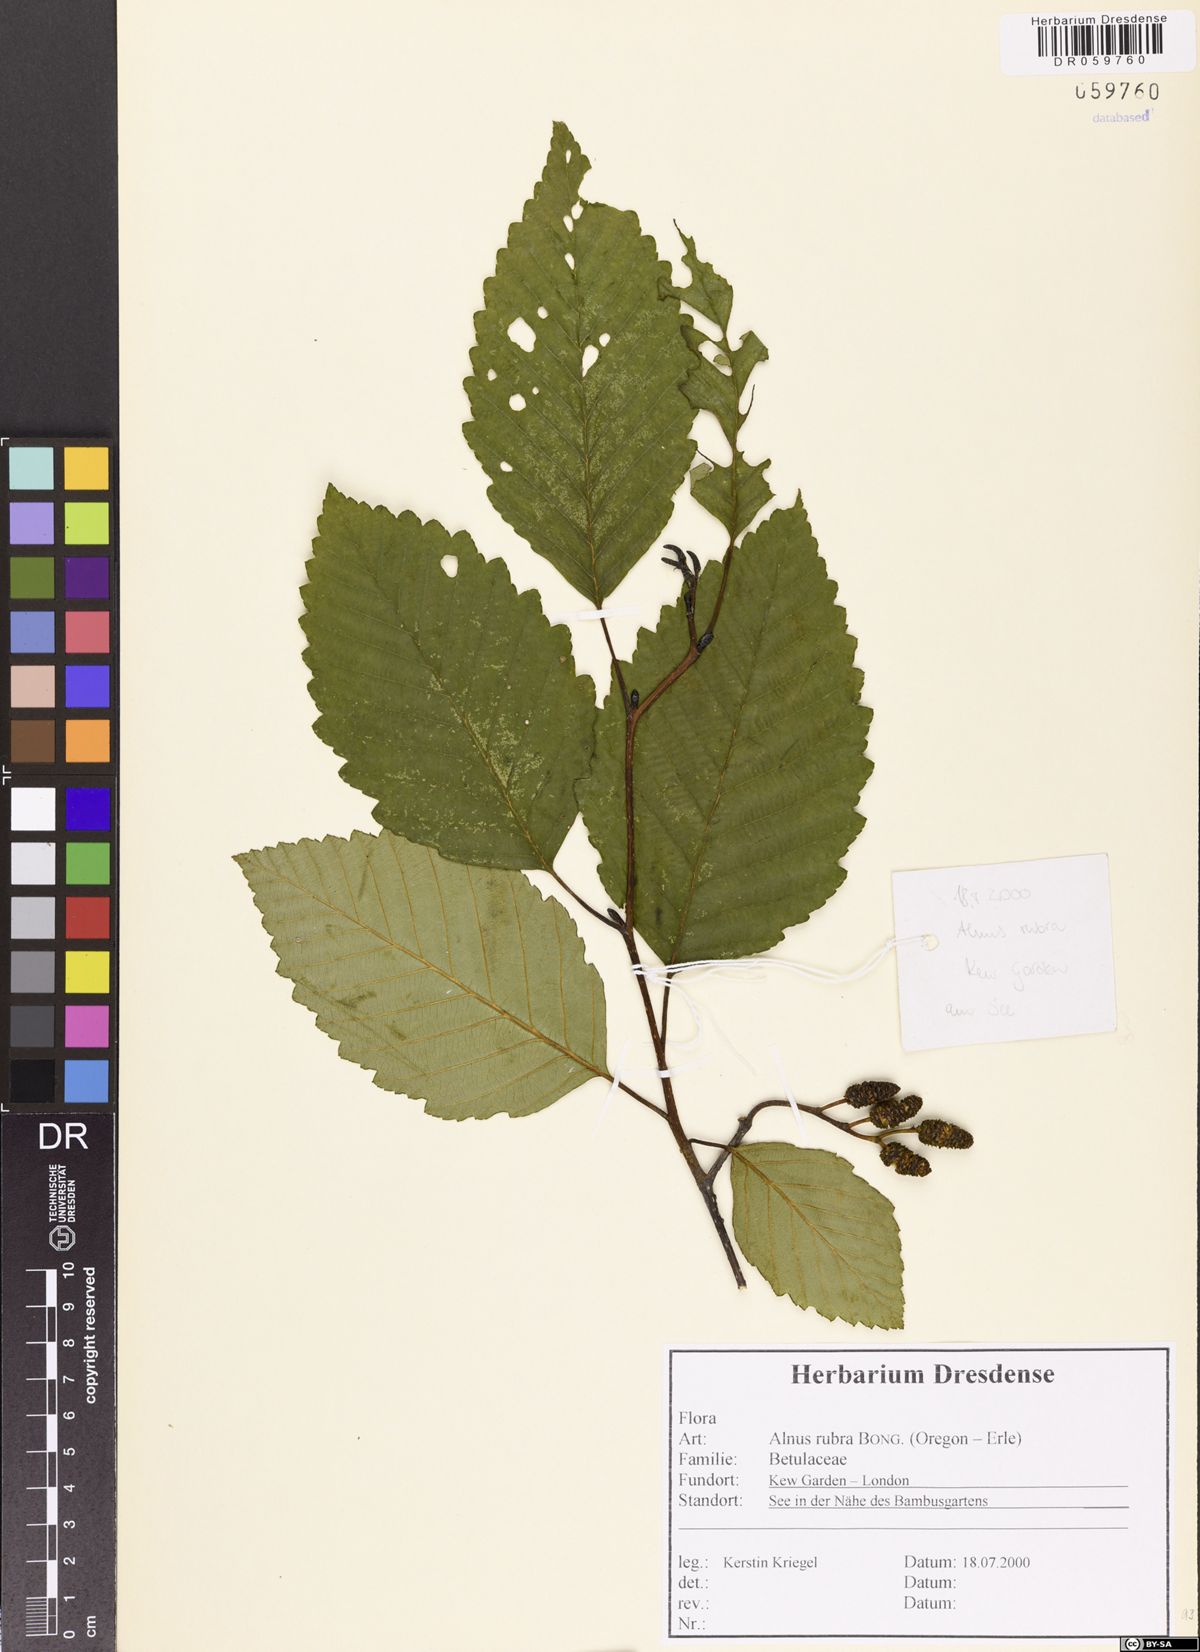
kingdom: Plantae
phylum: Tracheophyta
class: Magnoliopsida
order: Fagales
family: Betulaceae
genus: Alnus
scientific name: Alnus rubra
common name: Red alder
